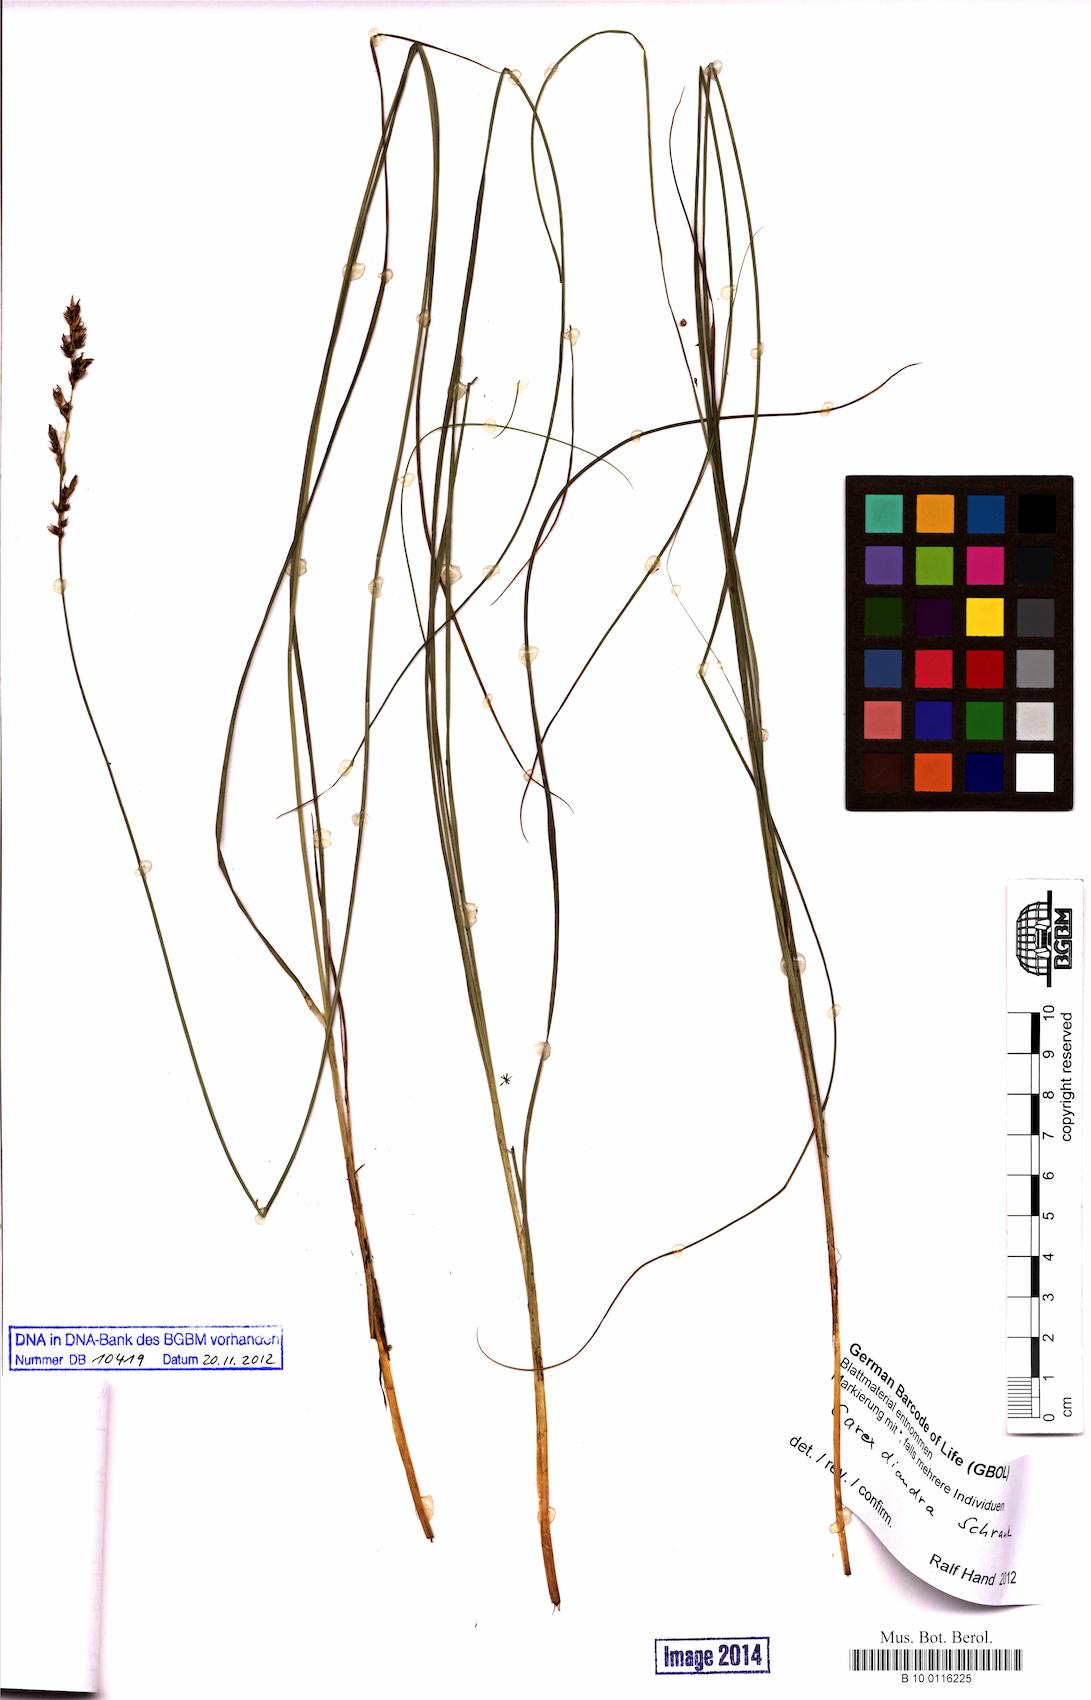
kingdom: Plantae
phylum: Tracheophyta
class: Liliopsida
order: Poales
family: Cyperaceae
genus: Carex
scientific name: Carex diandra
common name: Lesser tussock-sedge
